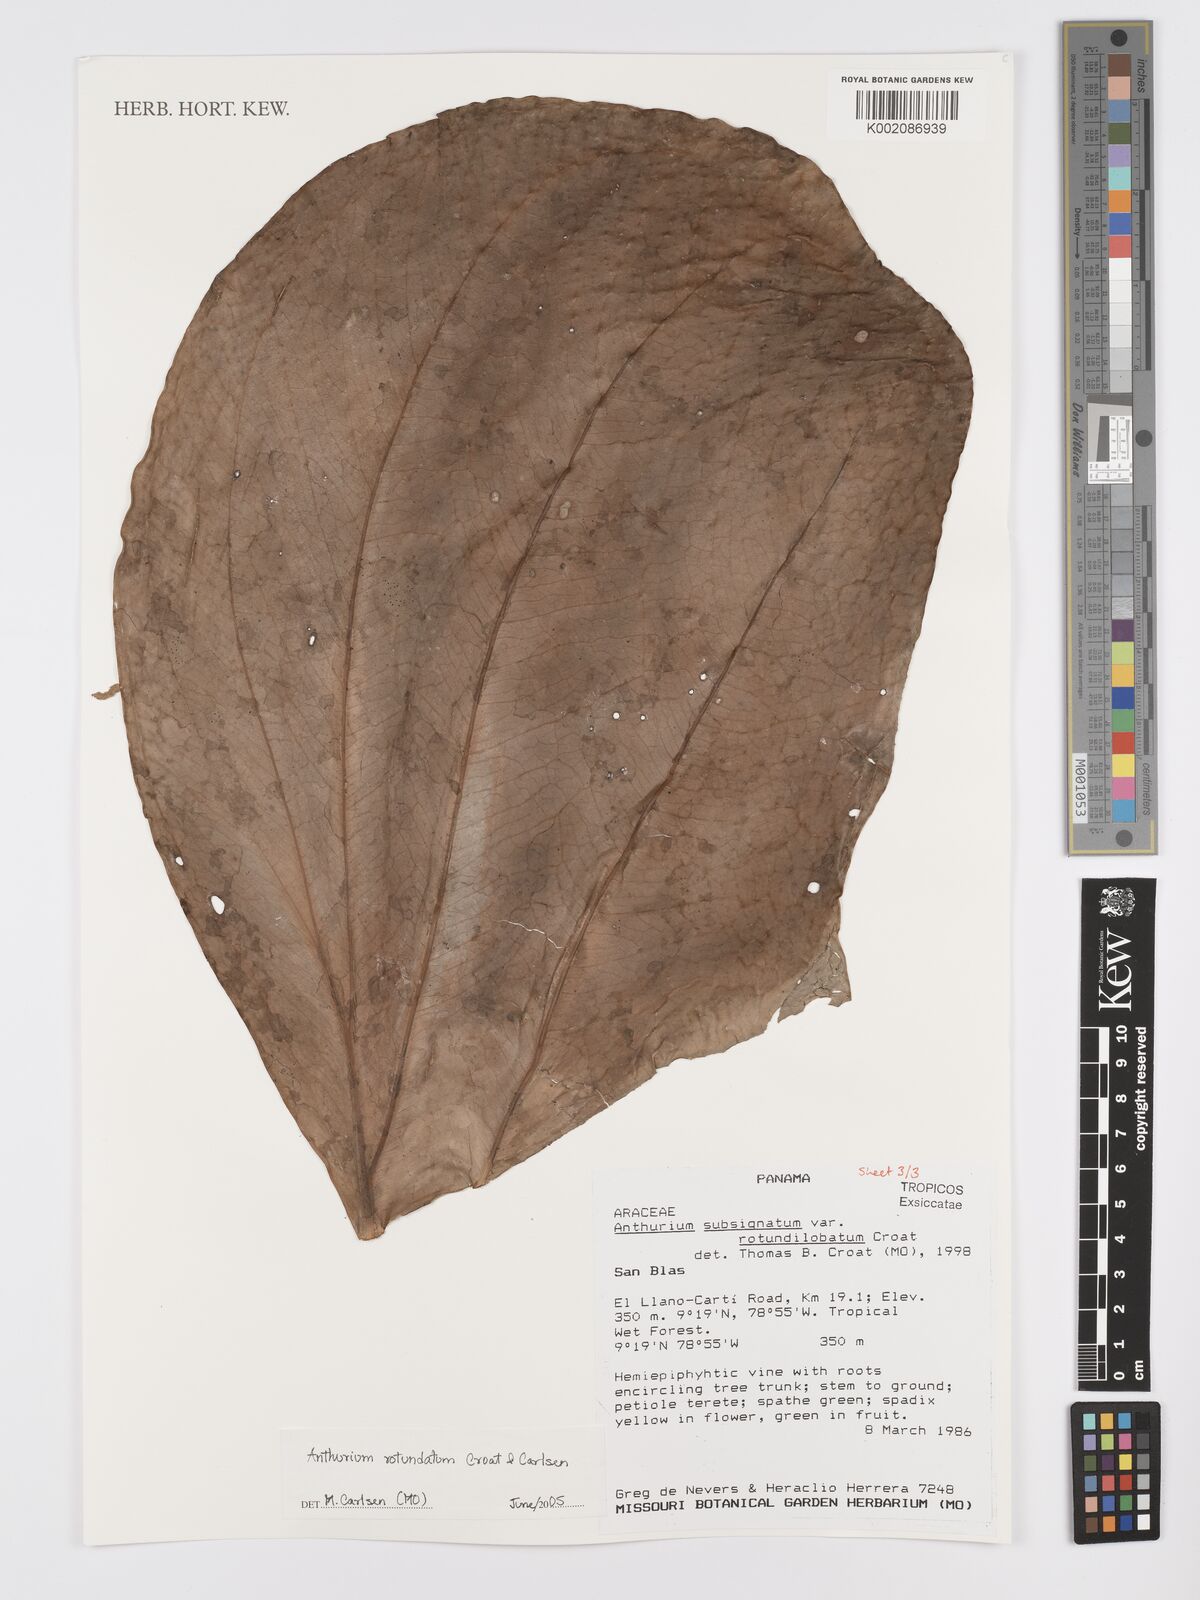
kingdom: Plantae
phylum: Tracheophyta
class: Liliopsida
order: Alismatales
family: Araceae
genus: Anthurium
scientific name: Anthurium rotundatum
